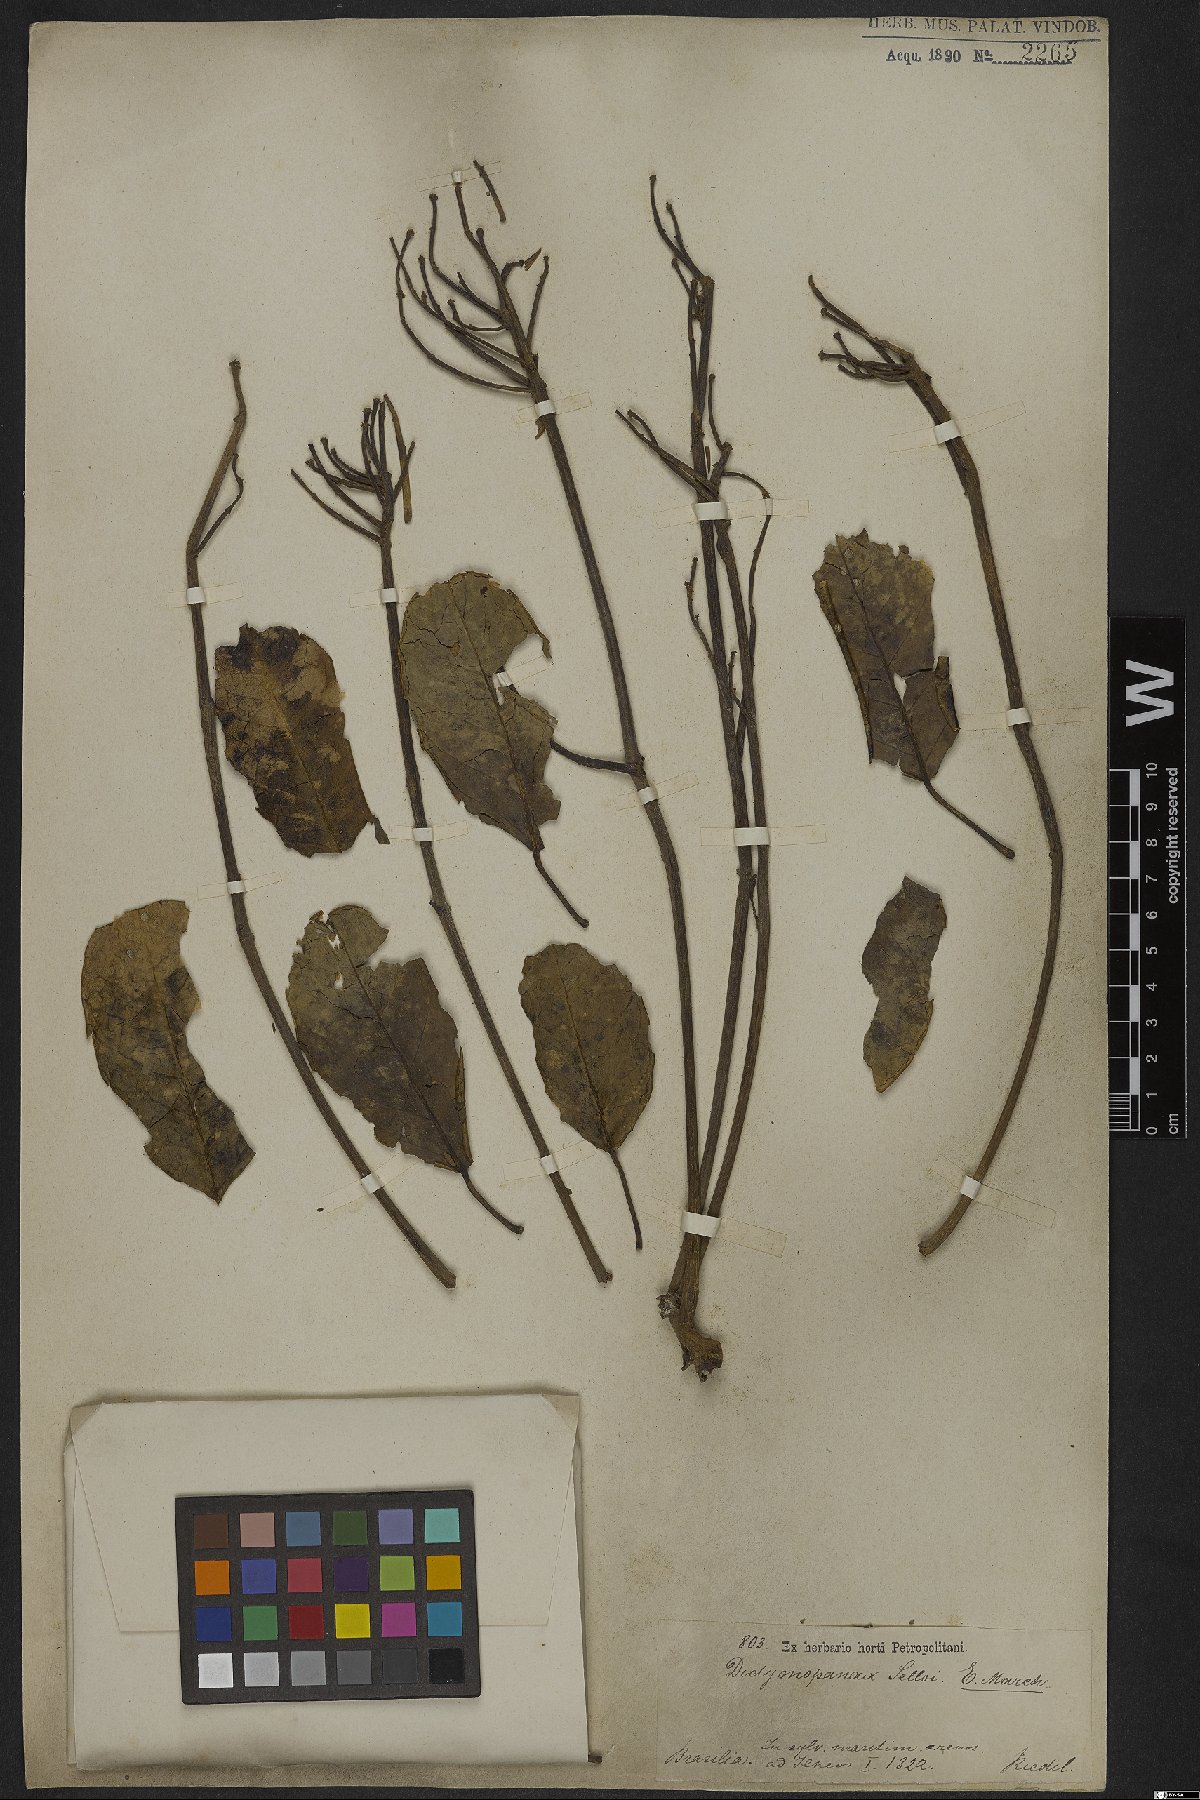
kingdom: Plantae
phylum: Tracheophyta
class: Magnoliopsida
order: Apiales
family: Araliaceae
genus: Didymopanax
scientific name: Didymopanax selloi
